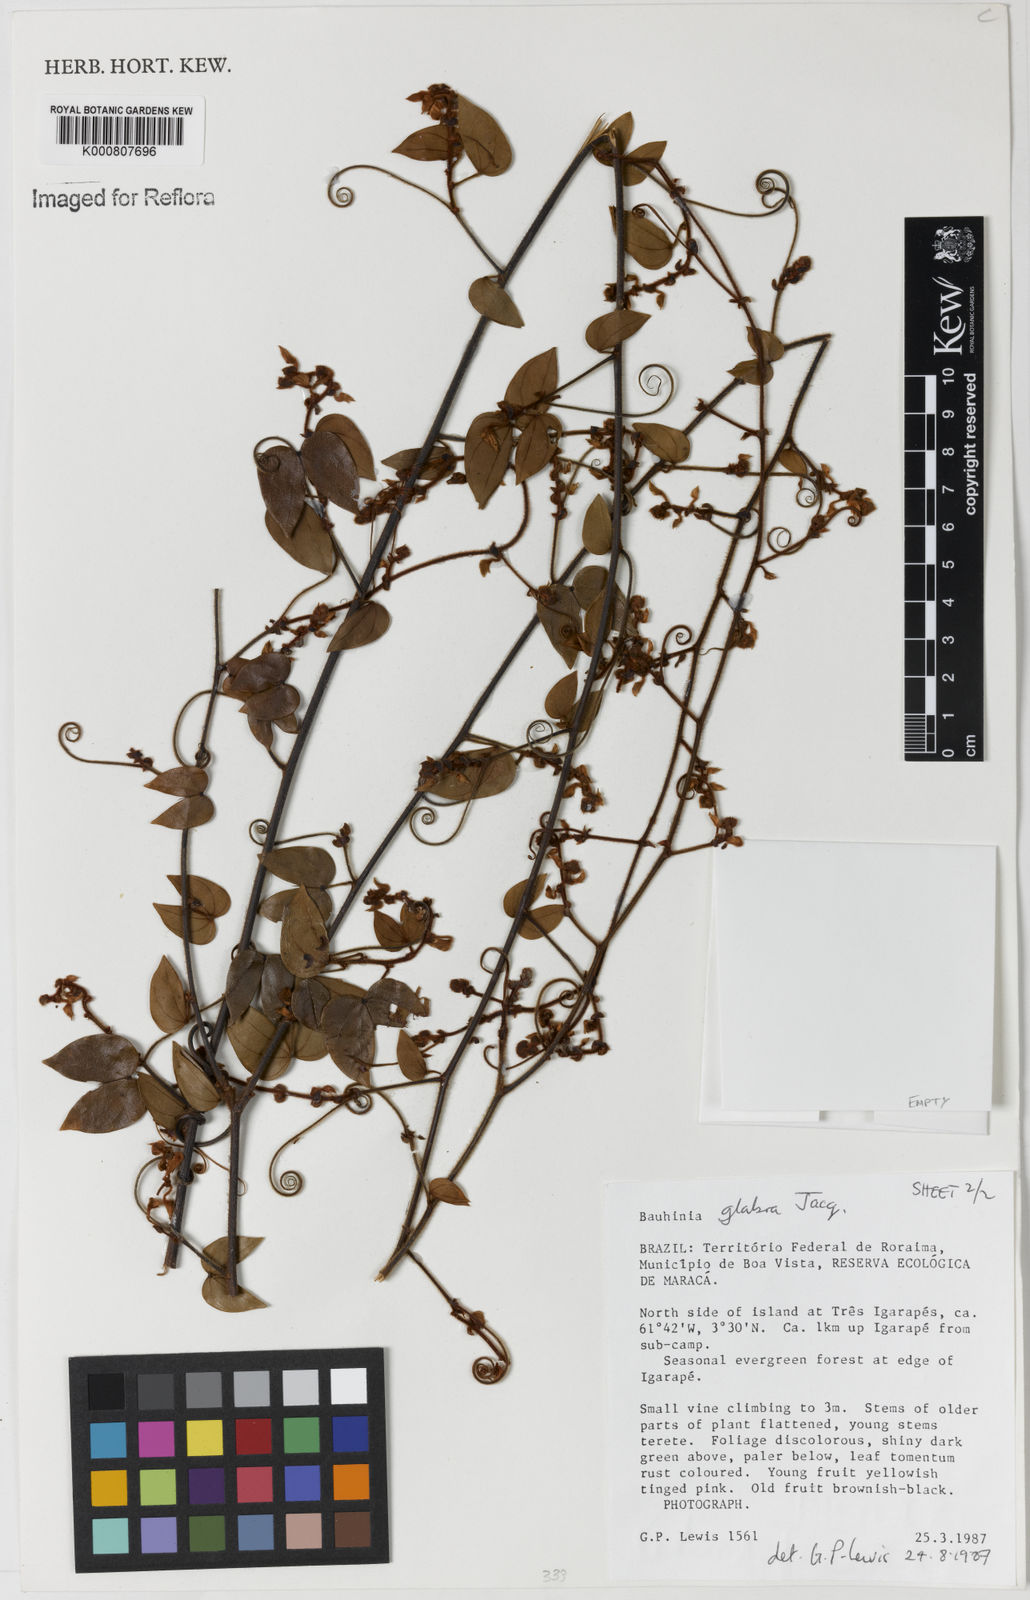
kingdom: Plantae
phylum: Tracheophyta
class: Magnoliopsida
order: Fabales
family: Fabaceae
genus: Schnella
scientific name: Schnella glabra
